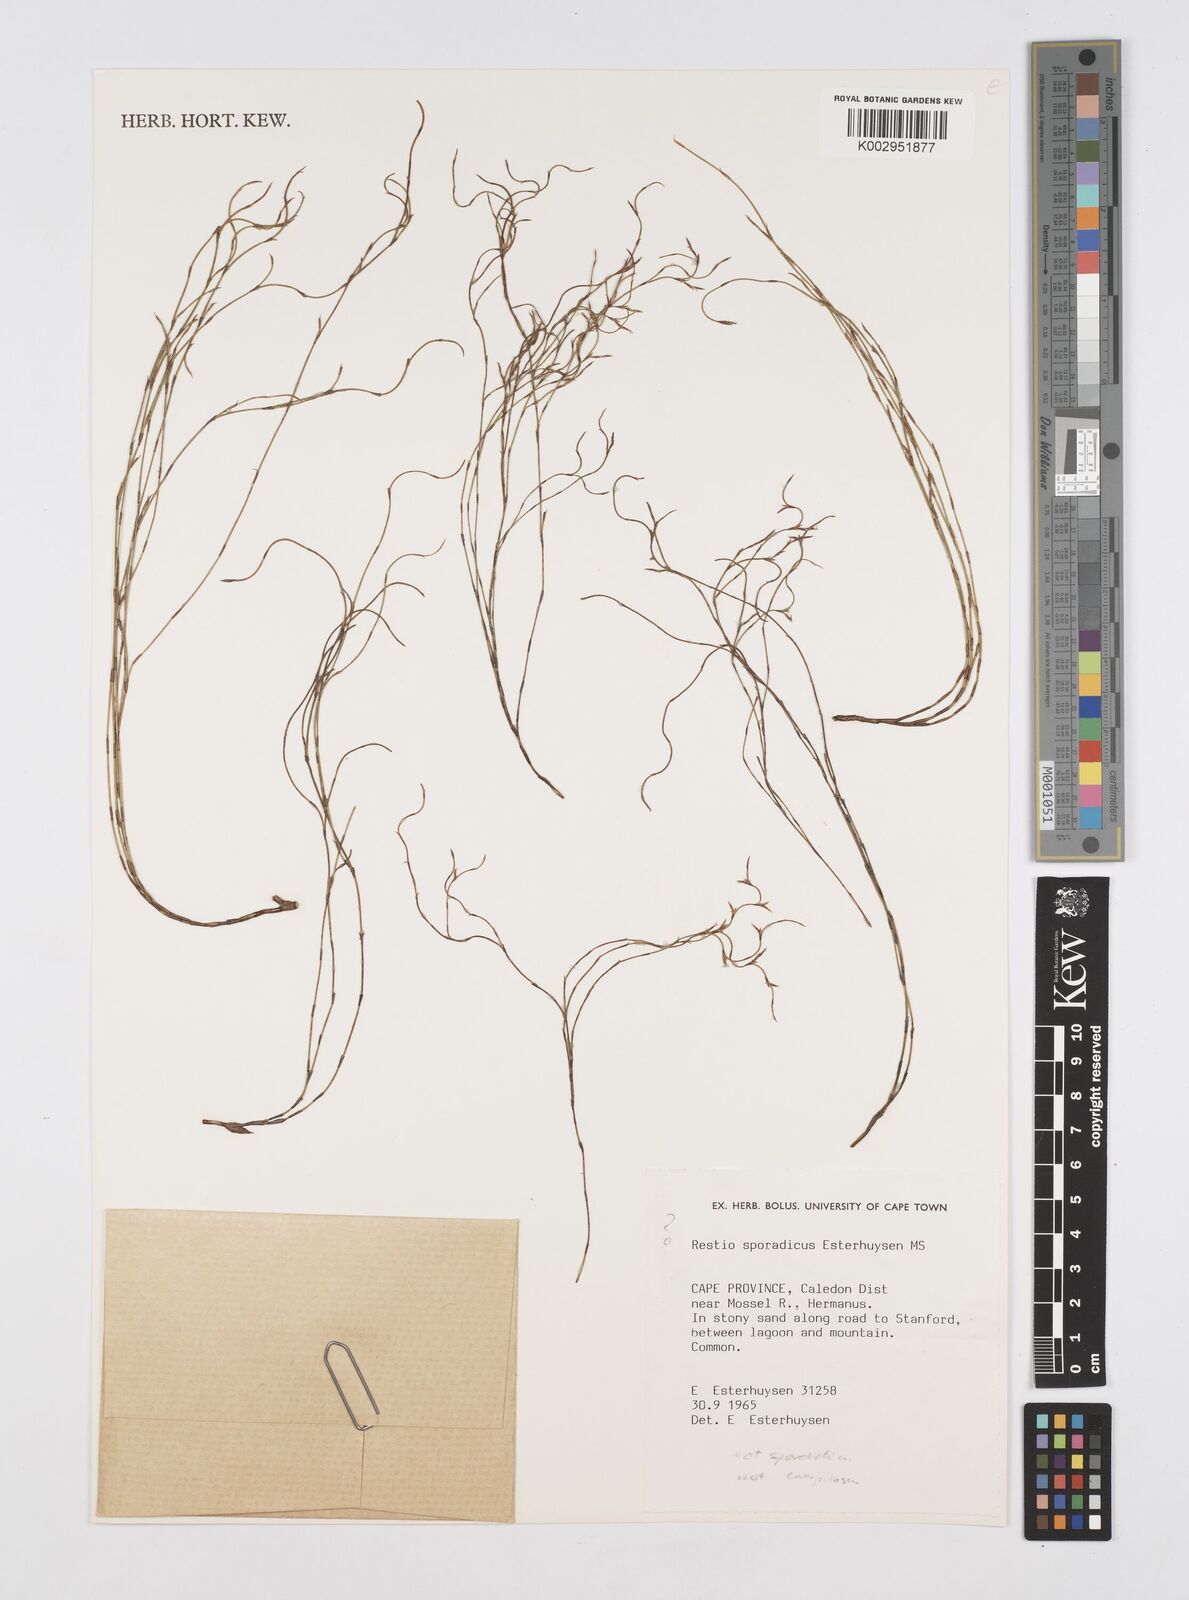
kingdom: Plantae
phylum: Tracheophyta
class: Liliopsida
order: Poales
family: Restionaceae
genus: Restio
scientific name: Restio
